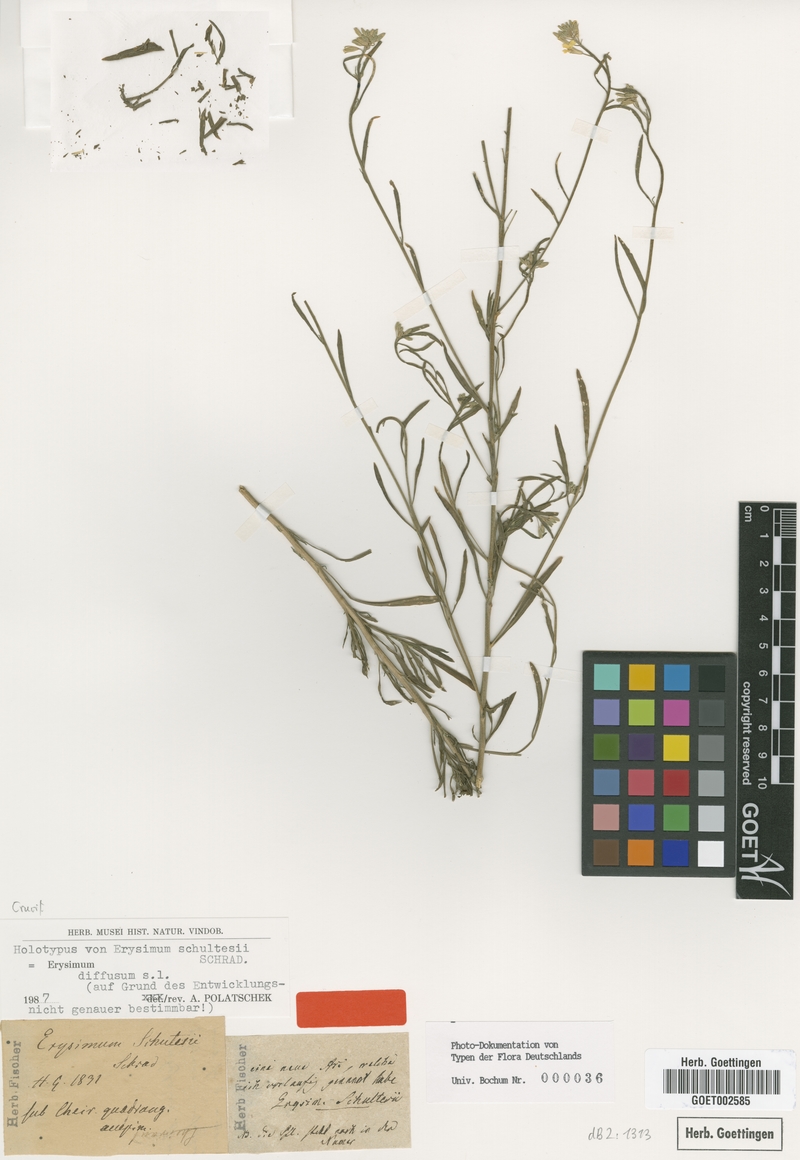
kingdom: Plantae
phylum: Tracheophyta
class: Magnoliopsida
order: Brassicales
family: Brassicaceae
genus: Erysimum
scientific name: Erysimum diffusum
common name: Diffuse wallflower
